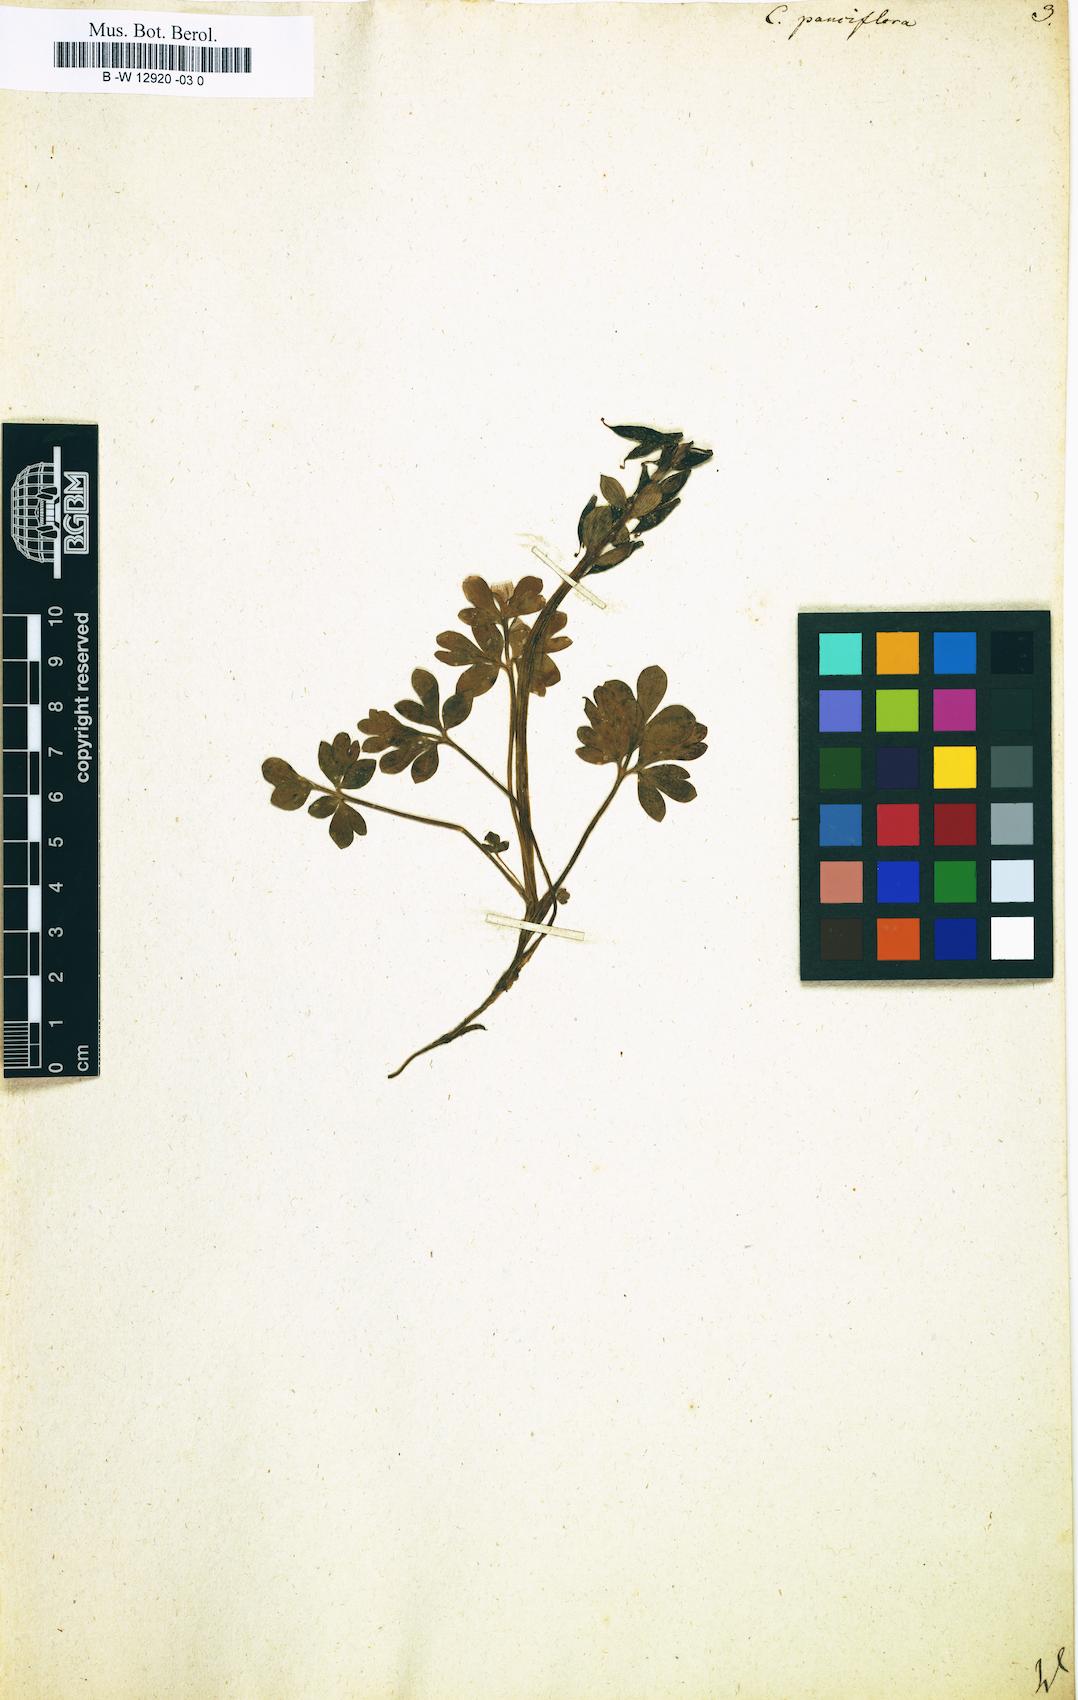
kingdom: Plantae
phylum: Tracheophyta
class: Magnoliopsida
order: Ranunculales
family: Papaveraceae
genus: Corydalis
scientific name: Corydalis pauciflora
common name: Blue corydalis
